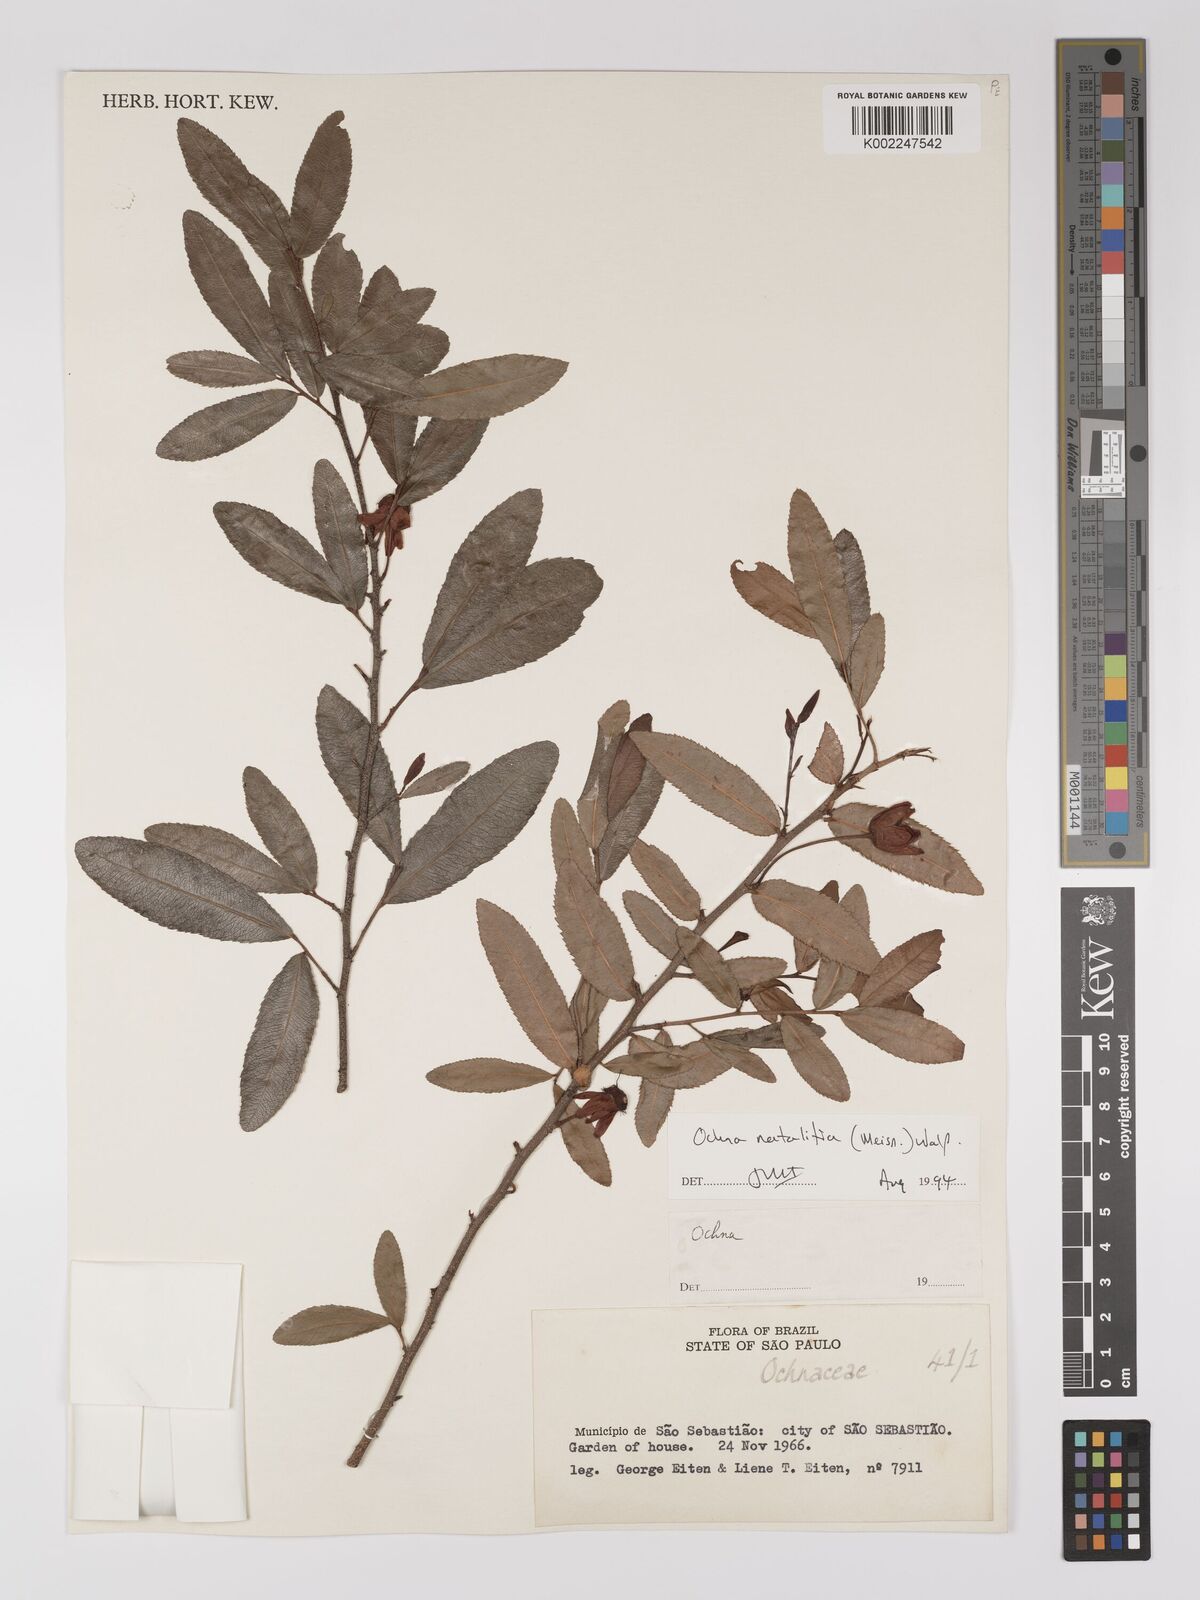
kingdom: Plantae
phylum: Tracheophyta
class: Magnoliopsida
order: Malpighiales
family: Ochnaceae
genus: Ochna
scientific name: Ochna natalitia
